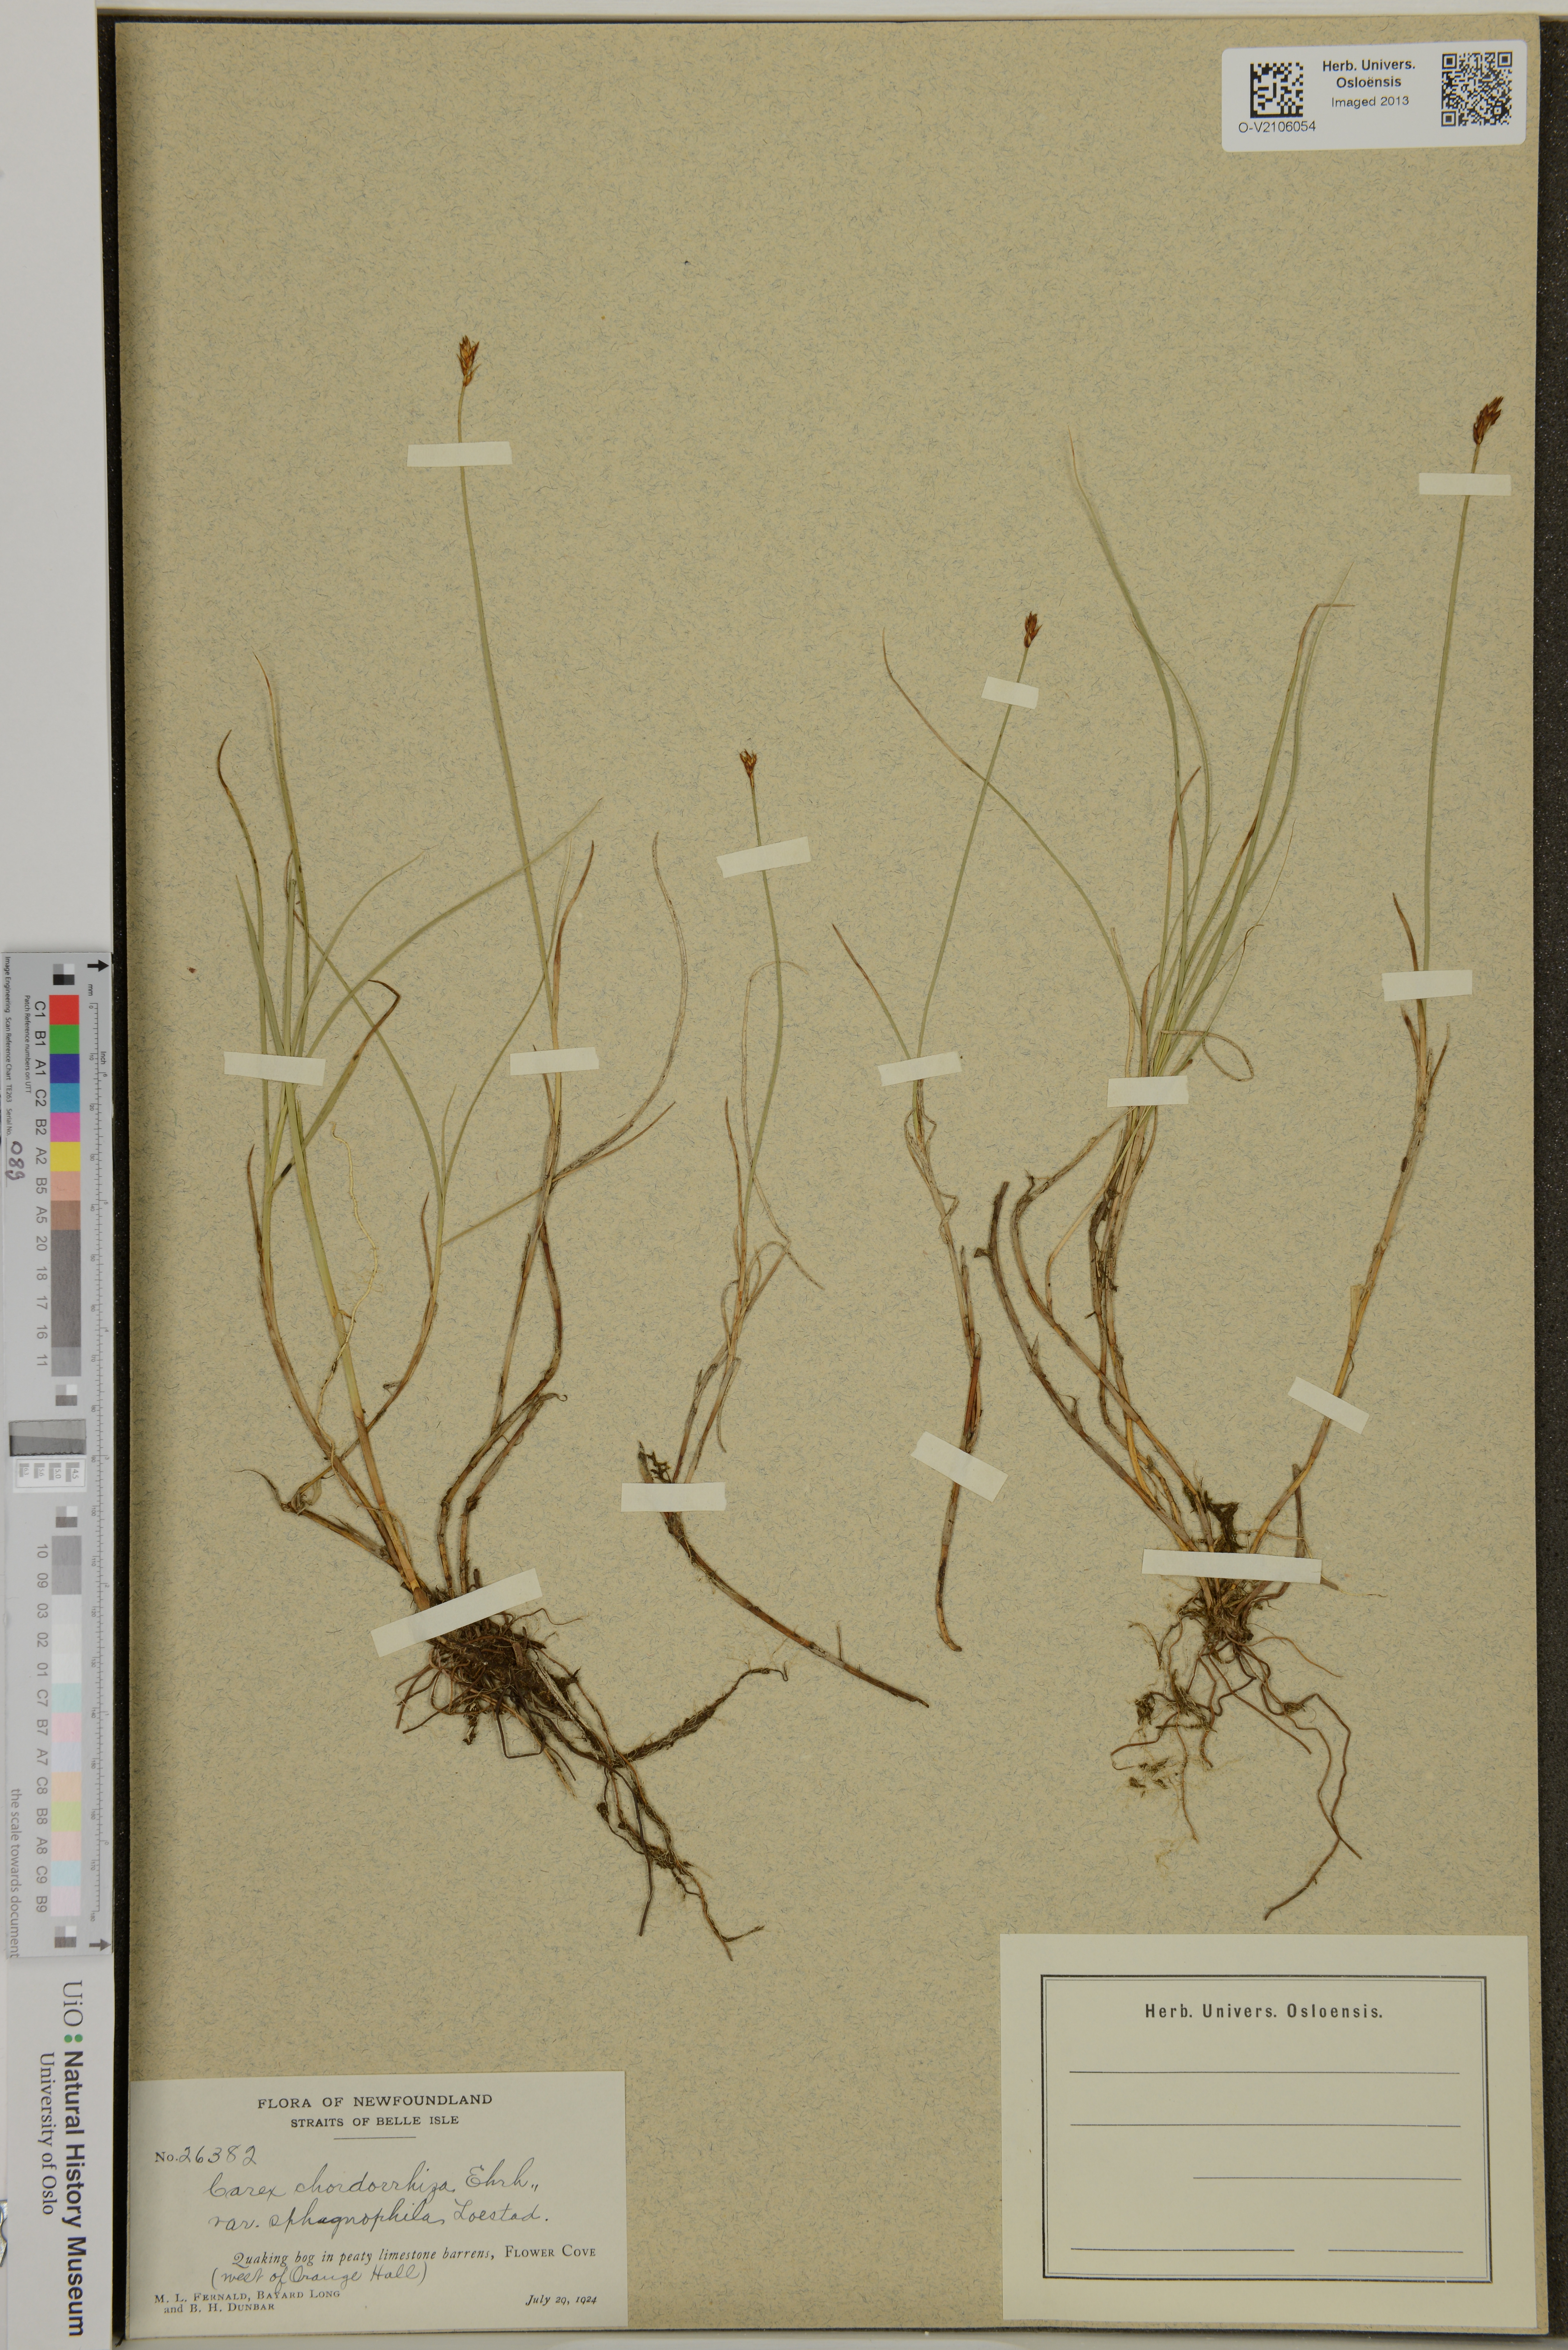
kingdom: Plantae
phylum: Tracheophyta
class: Liliopsida
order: Poales
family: Cyperaceae
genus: Carex
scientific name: Carex chordorrhiza
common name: String sedge
